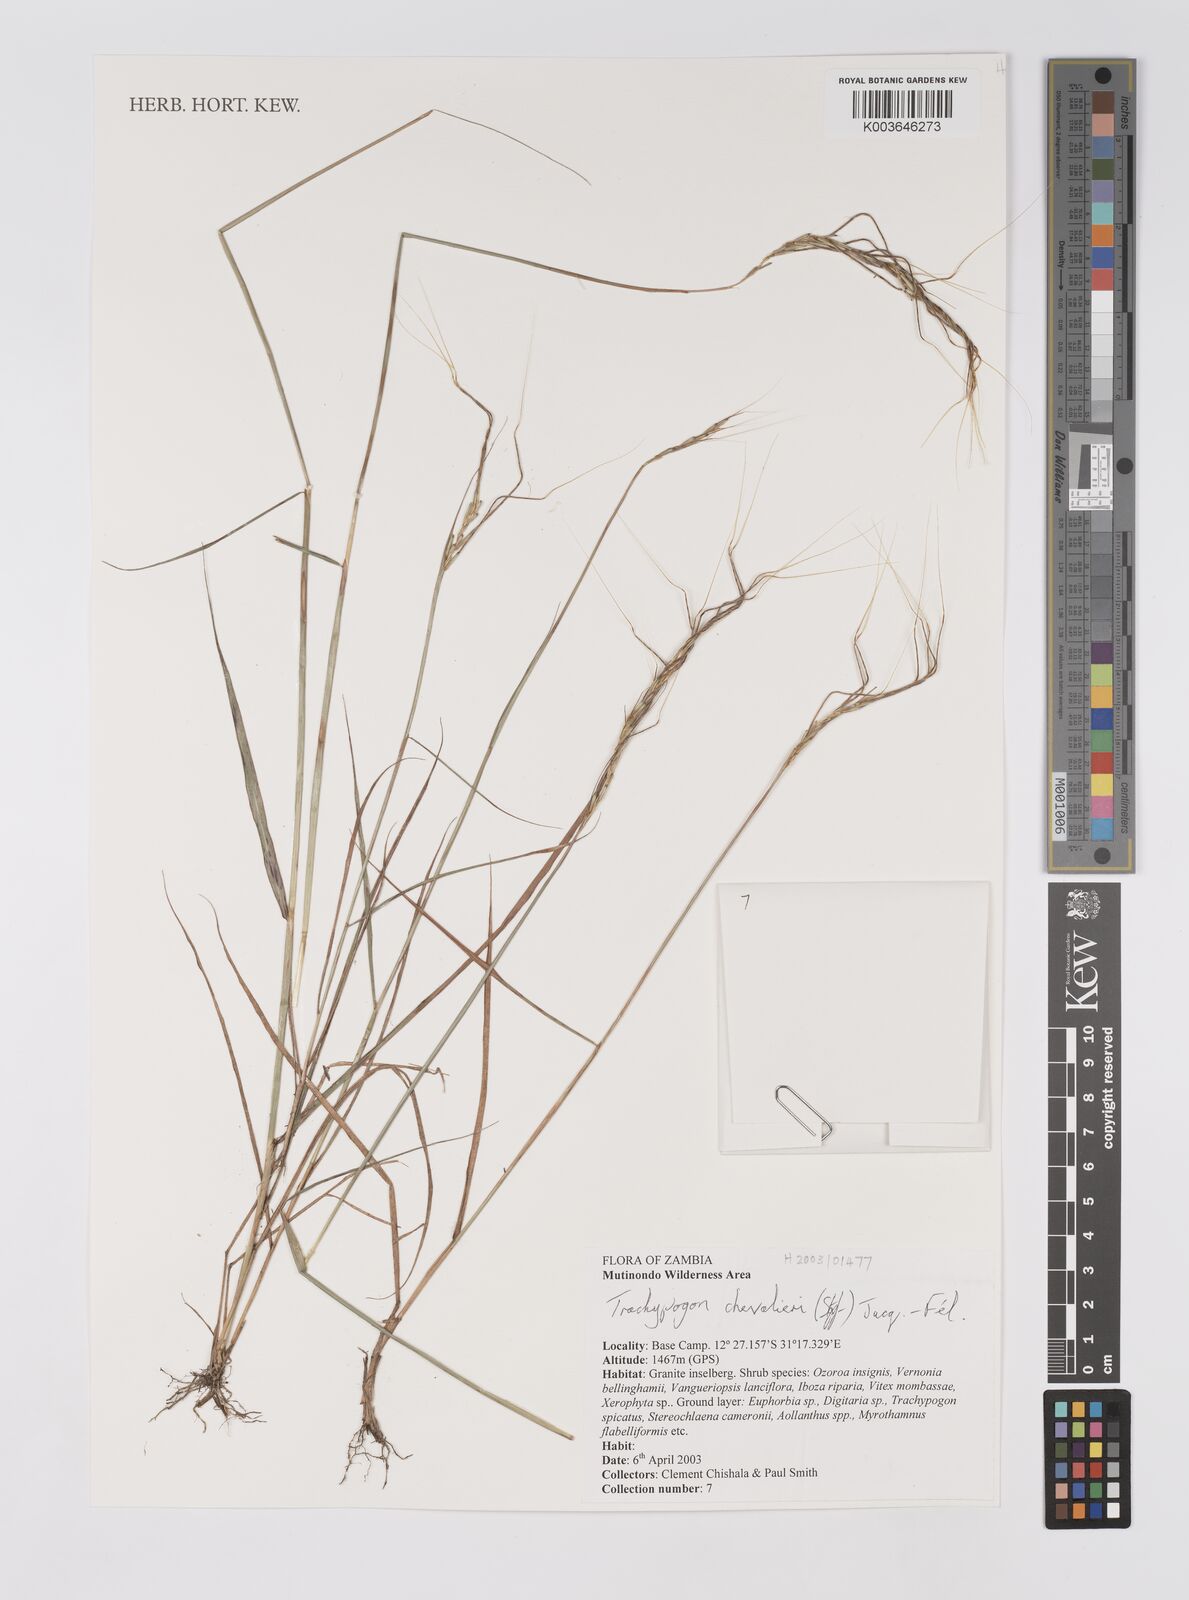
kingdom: Plantae
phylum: Tracheophyta
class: Liliopsida
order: Poales
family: Poaceae
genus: Trachypogon
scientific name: Trachypogon chevalieri
